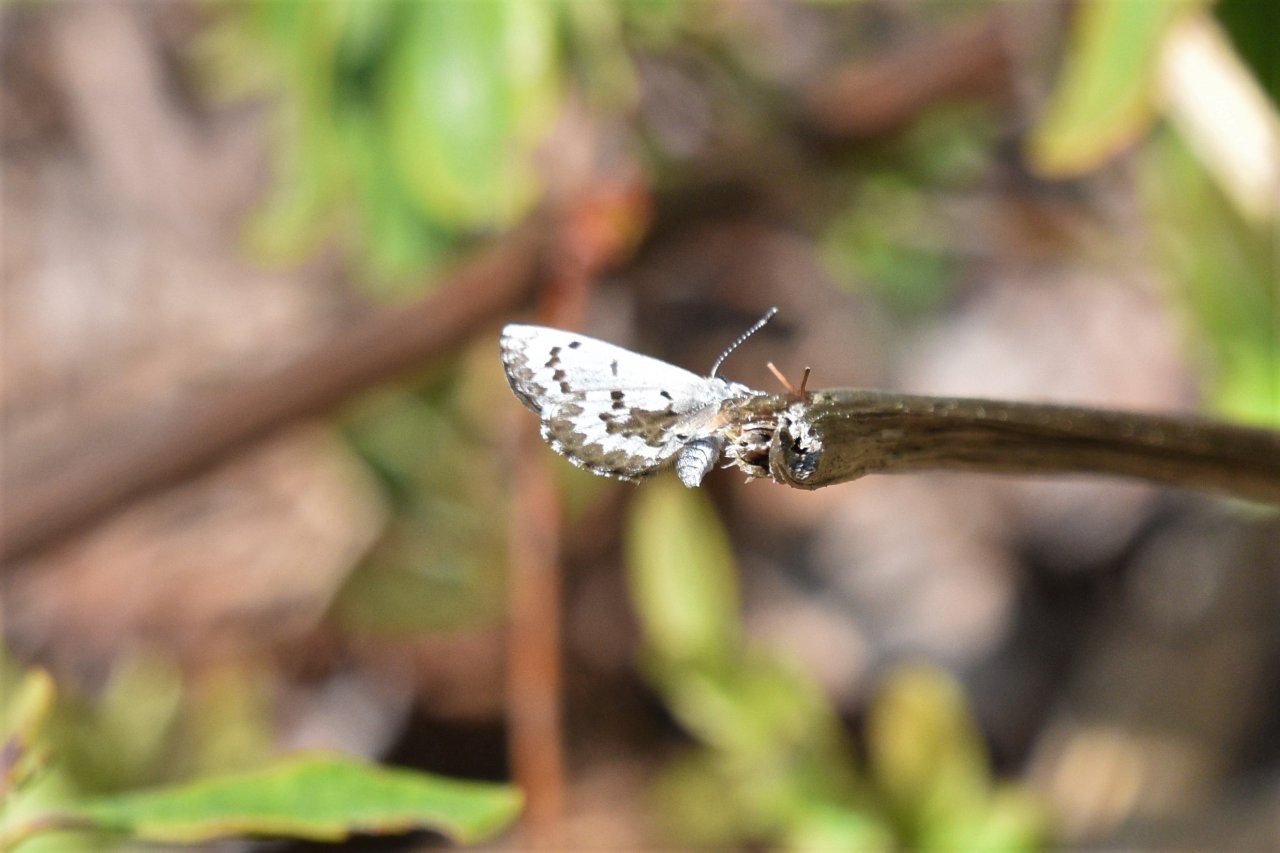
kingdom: Animalia
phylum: Arthropoda
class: Insecta
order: Lepidoptera
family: Lycaenidae
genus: Celastrina
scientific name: Celastrina
